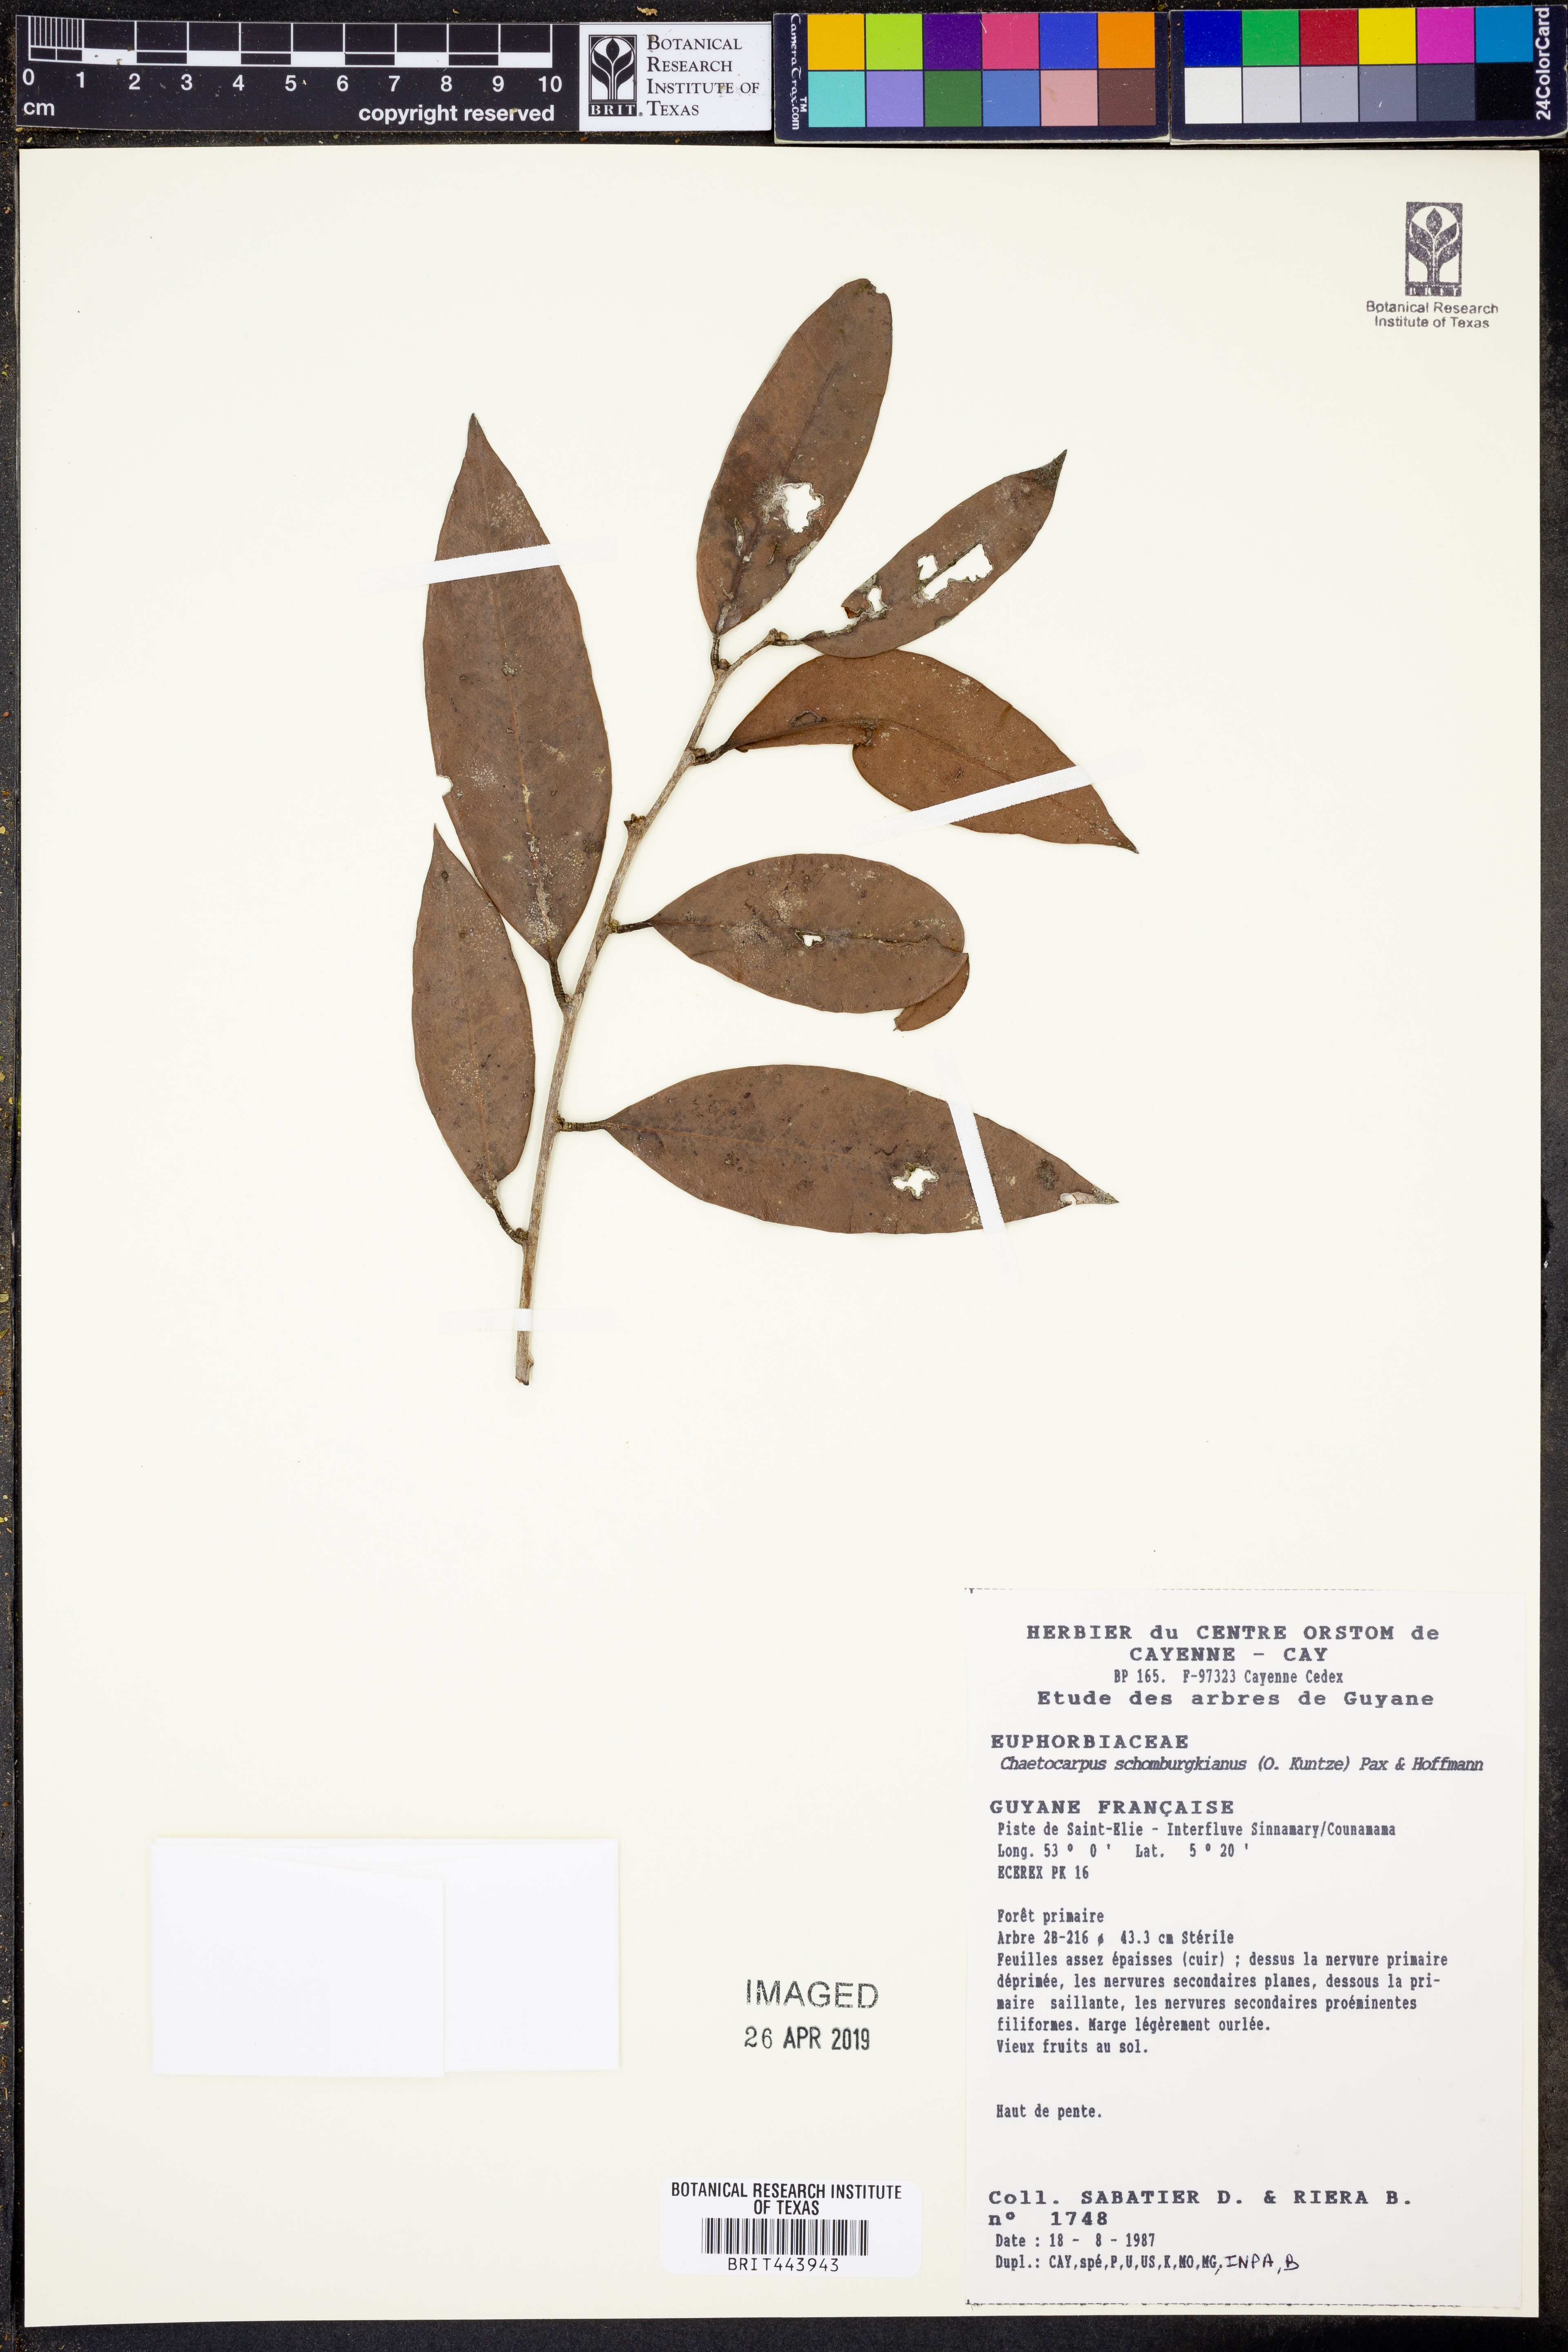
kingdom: Plantae
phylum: Tracheophyta
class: Magnoliopsida
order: Malpighiales
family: Peraceae
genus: Chaetocarpus
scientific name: Chaetocarpus schomburgkianus
